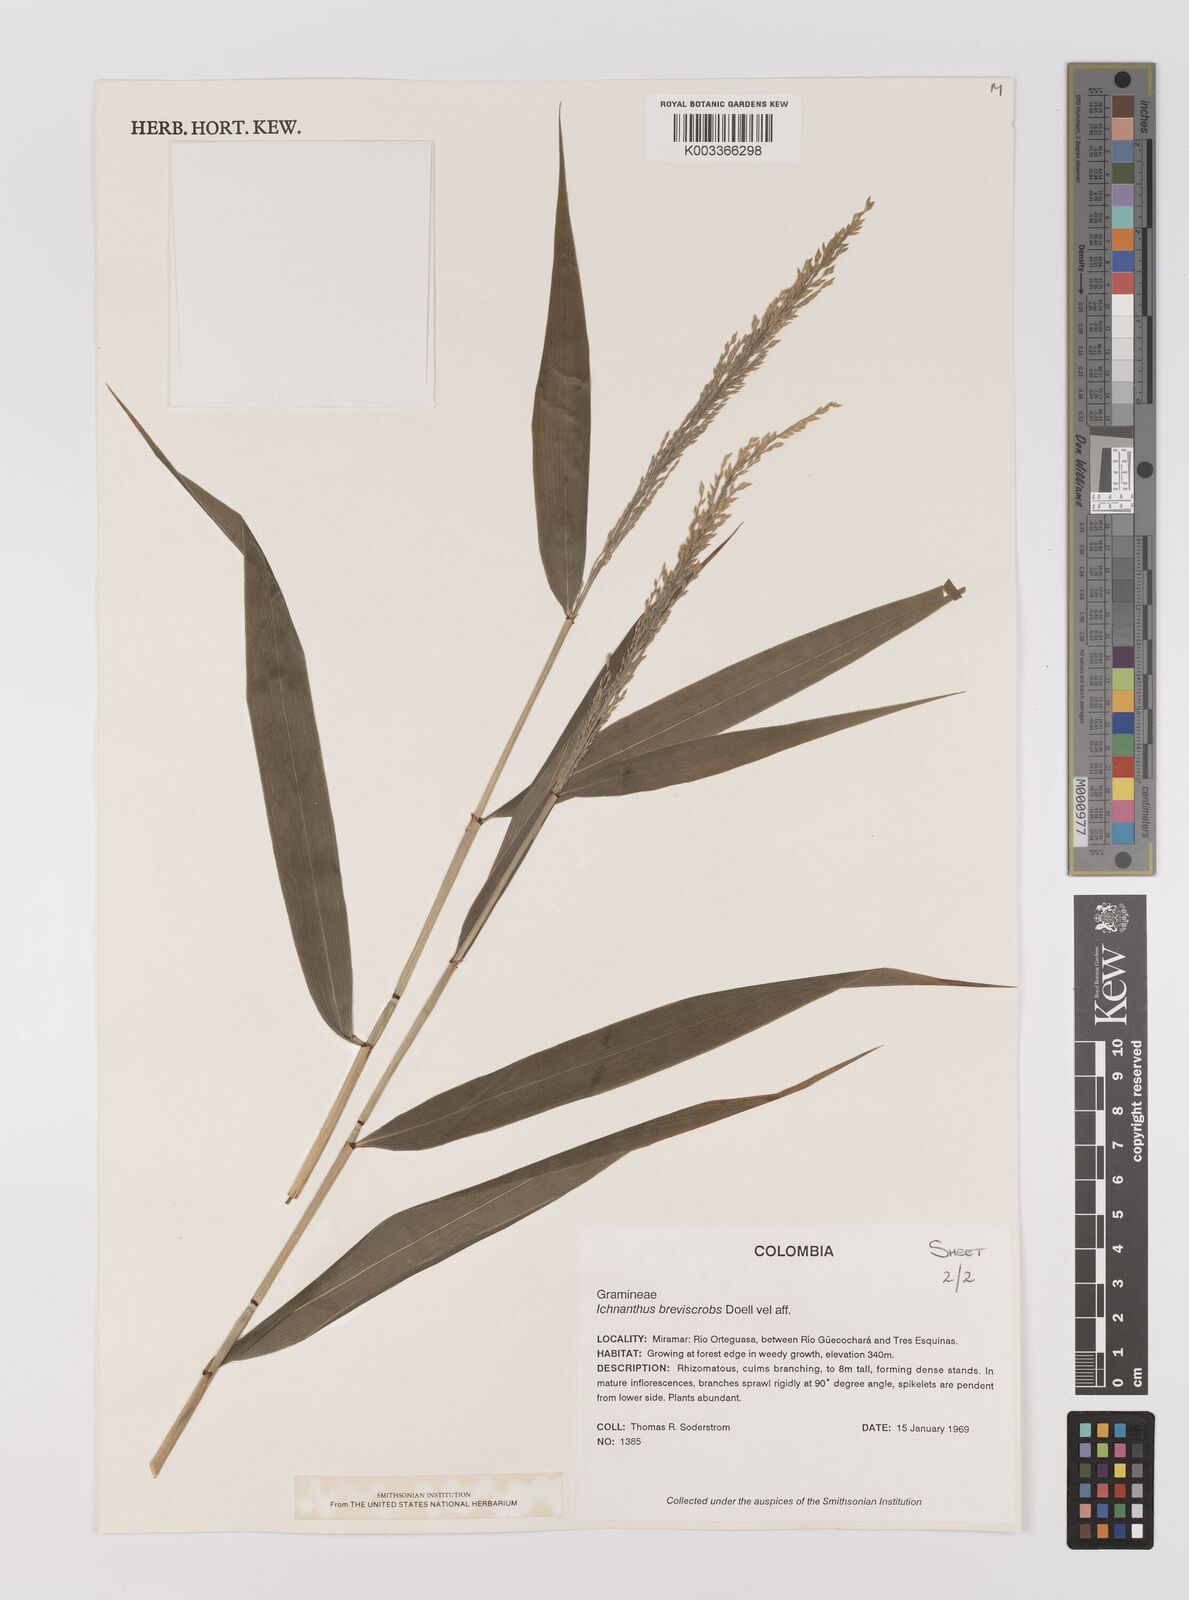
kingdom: Plantae
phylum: Tracheophyta
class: Liliopsida
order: Poales
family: Poaceae
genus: Ichnanthus
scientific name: Ichnanthus breviscrobs
